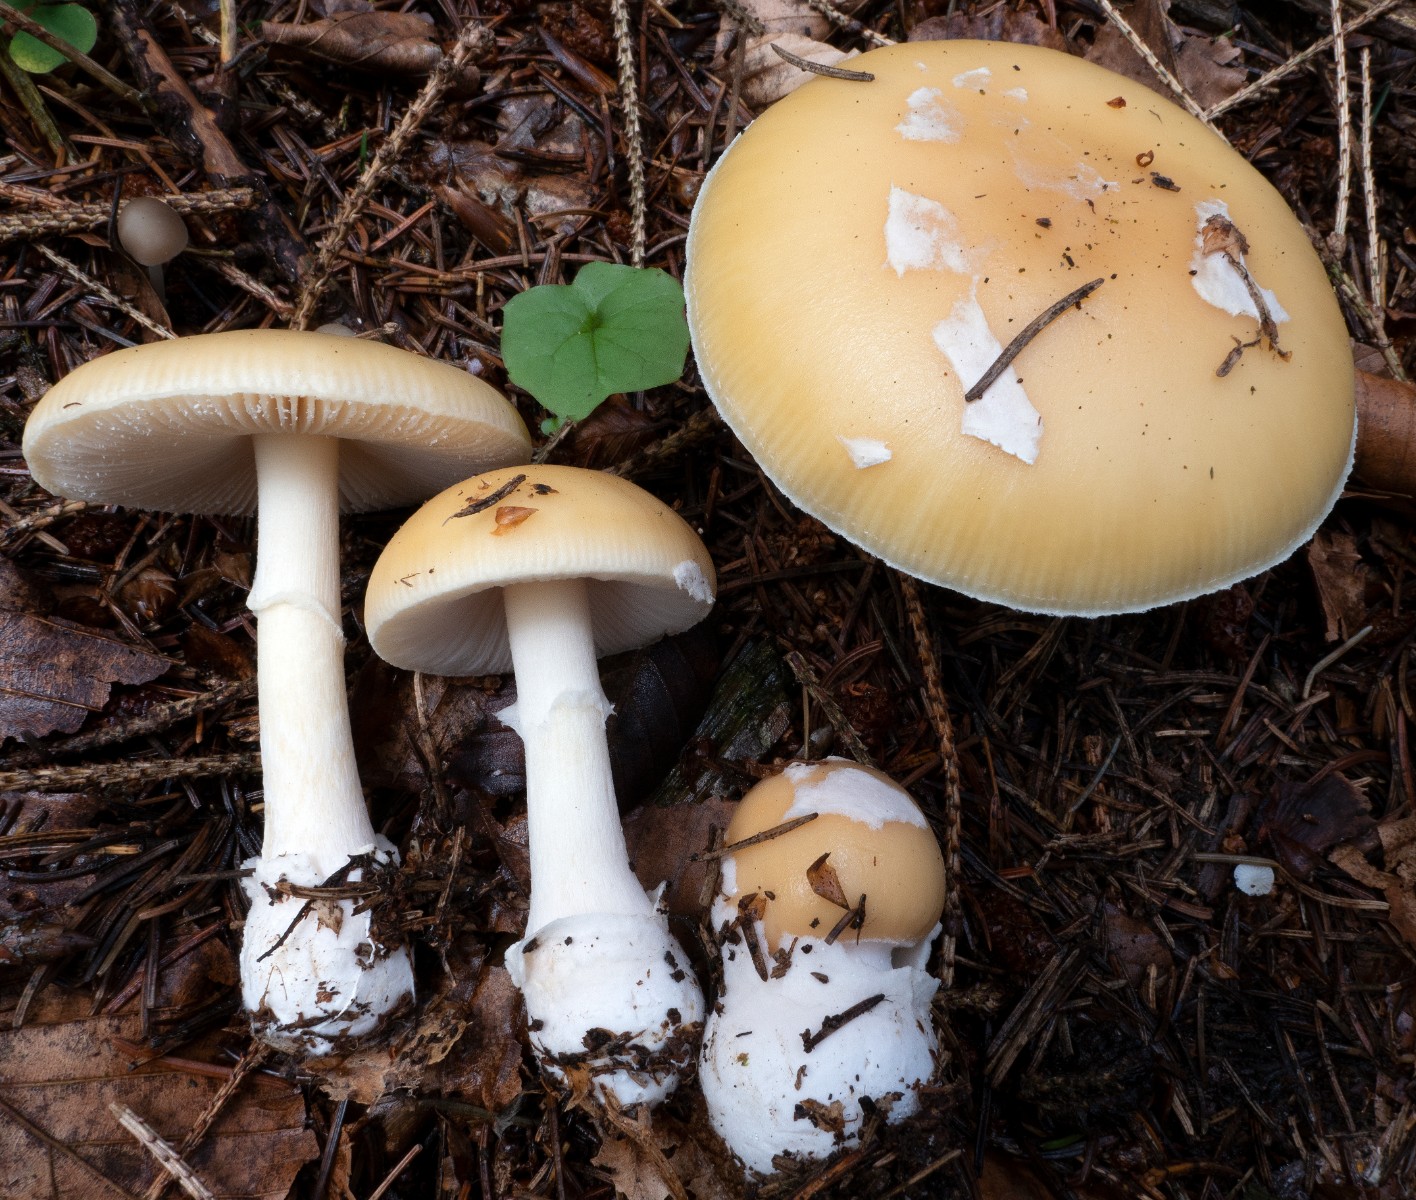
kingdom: Fungi
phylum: Basidiomycota
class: Agaricomycetes
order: Agaricales
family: Amanitaceae
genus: Amanita
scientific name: Amanita gemmata
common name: okkergul fluesvamp
